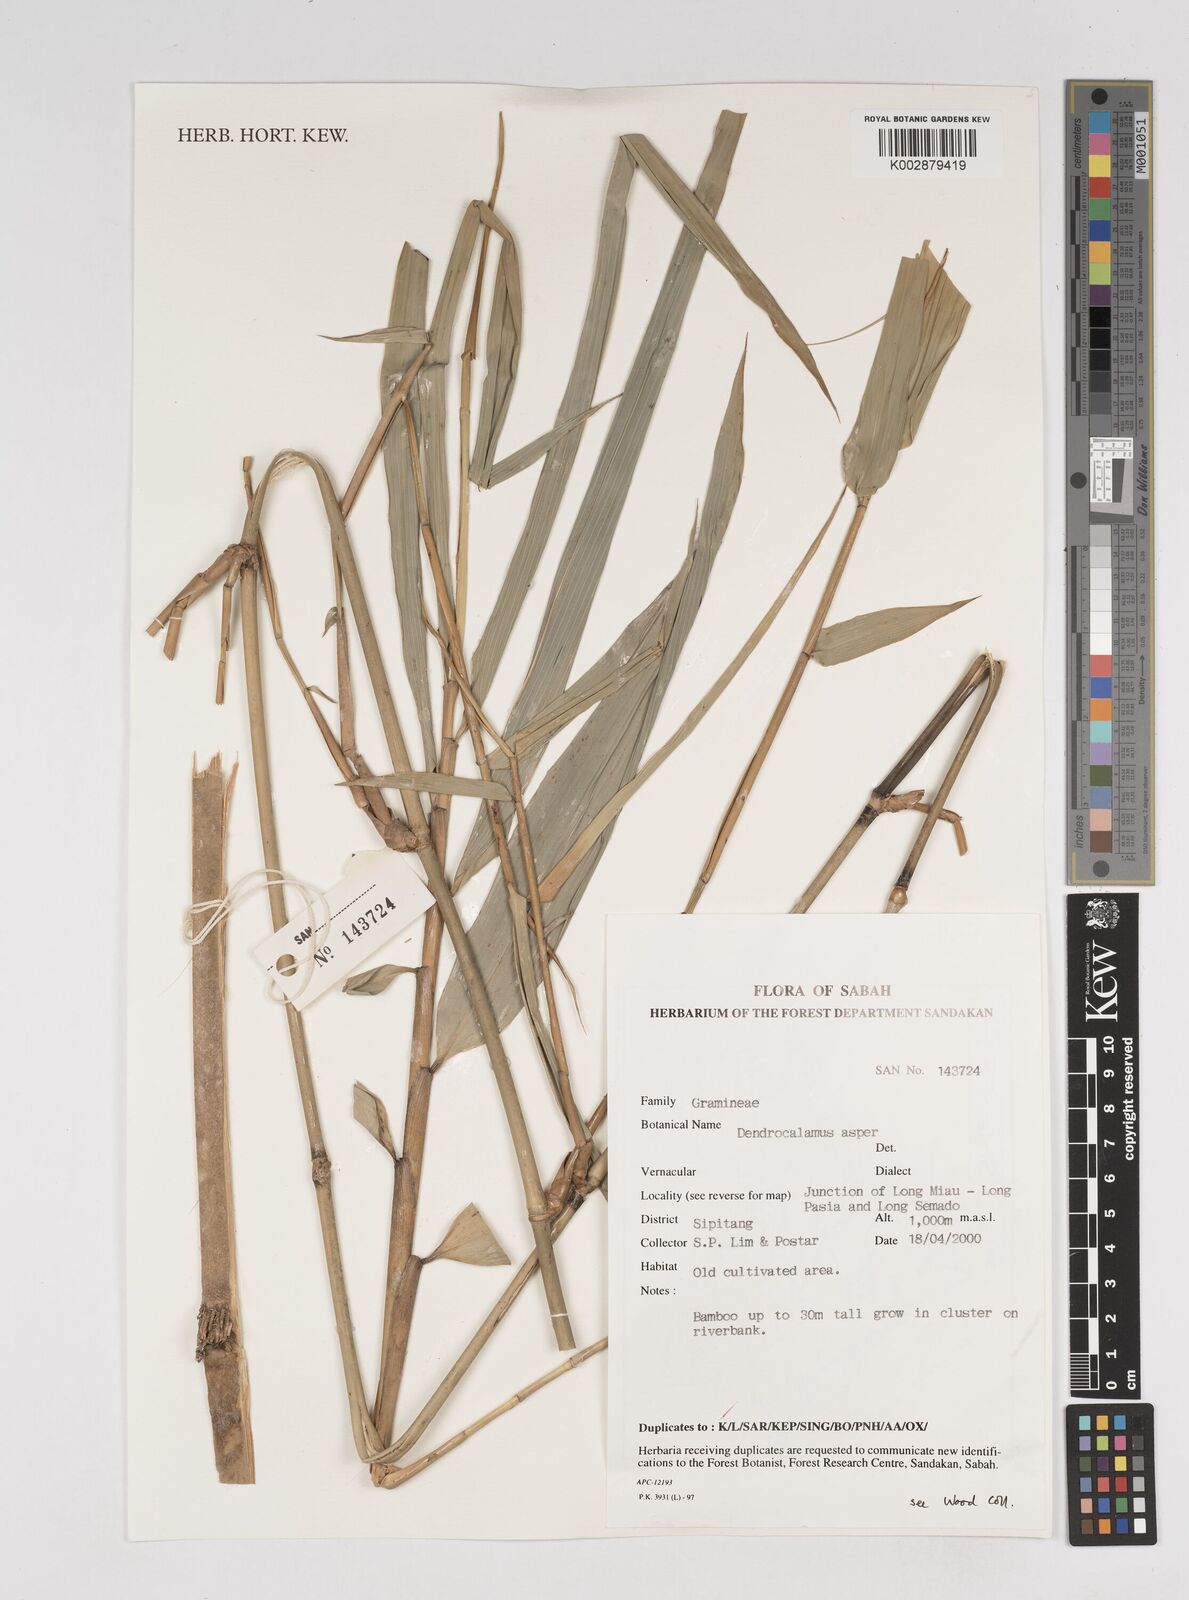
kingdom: Plantae
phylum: Tracheophyta
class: Liliopsida
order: Poales
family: Poaceae
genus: Dendrocalamus
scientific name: Dendrocalamus asper
